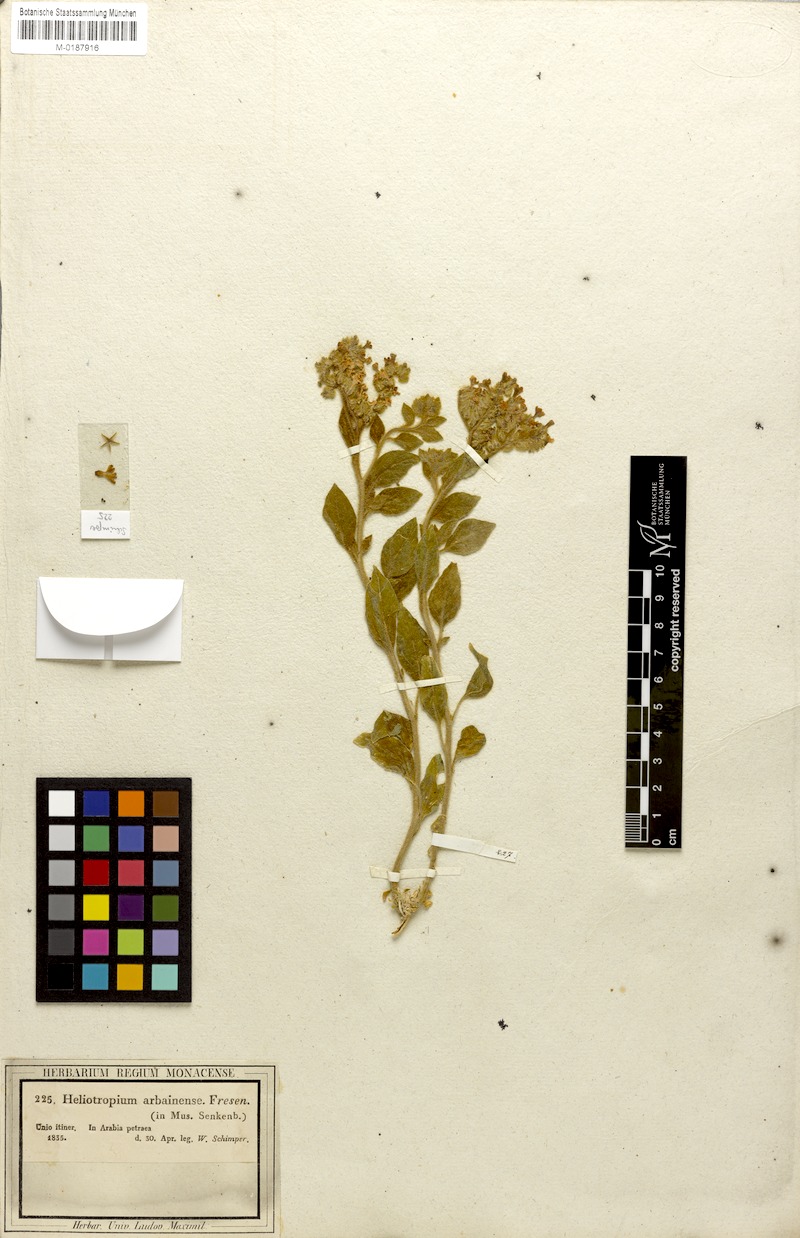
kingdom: Plantae
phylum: Tracheophyta
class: Magnoliopsida
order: Boraginales
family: Heliotropiaceae
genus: Heliotropium
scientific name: Heliotropium arbainense
